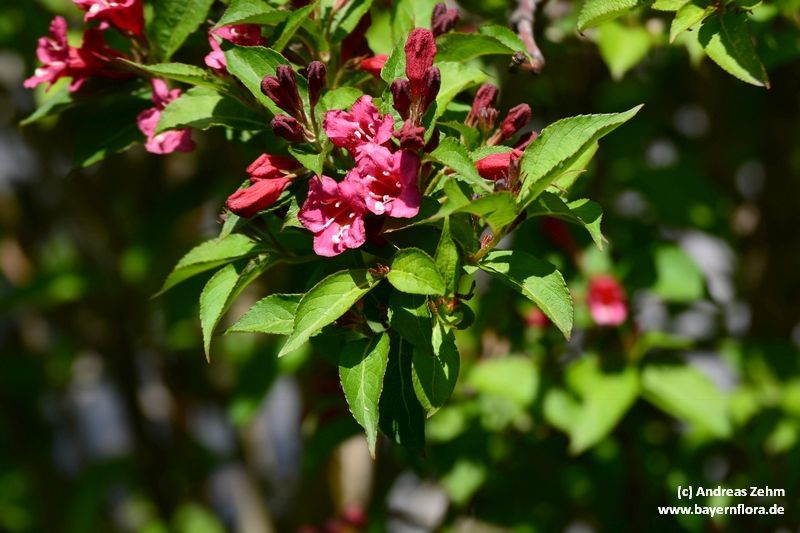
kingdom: Plantae
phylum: Tracheophyta
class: Magnoliopsida
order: Dipsacales
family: Caprifoliaceae
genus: Weigela
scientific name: Weigela florida
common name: Weigelia
